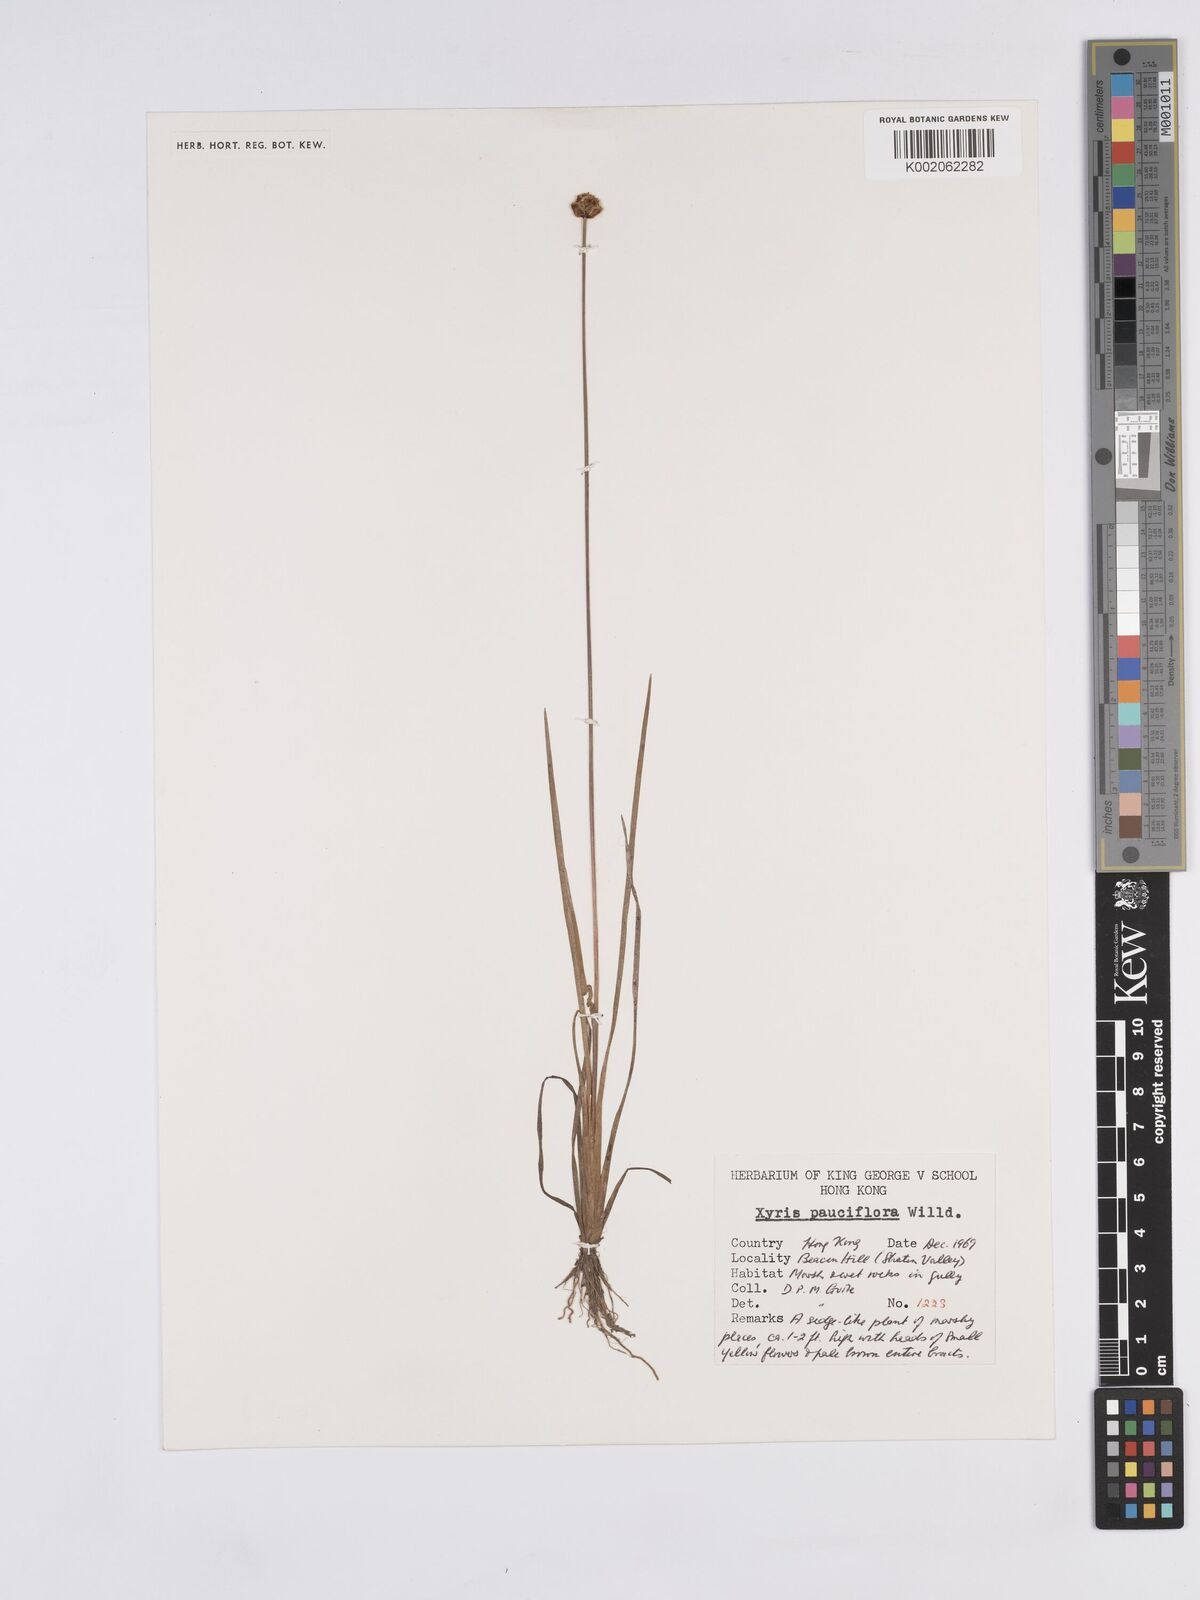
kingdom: Plantae
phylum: Tracheophyta
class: Liliopsida
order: Poales
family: Xyridaceae
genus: Xyris
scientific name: Xyris pauciflora
